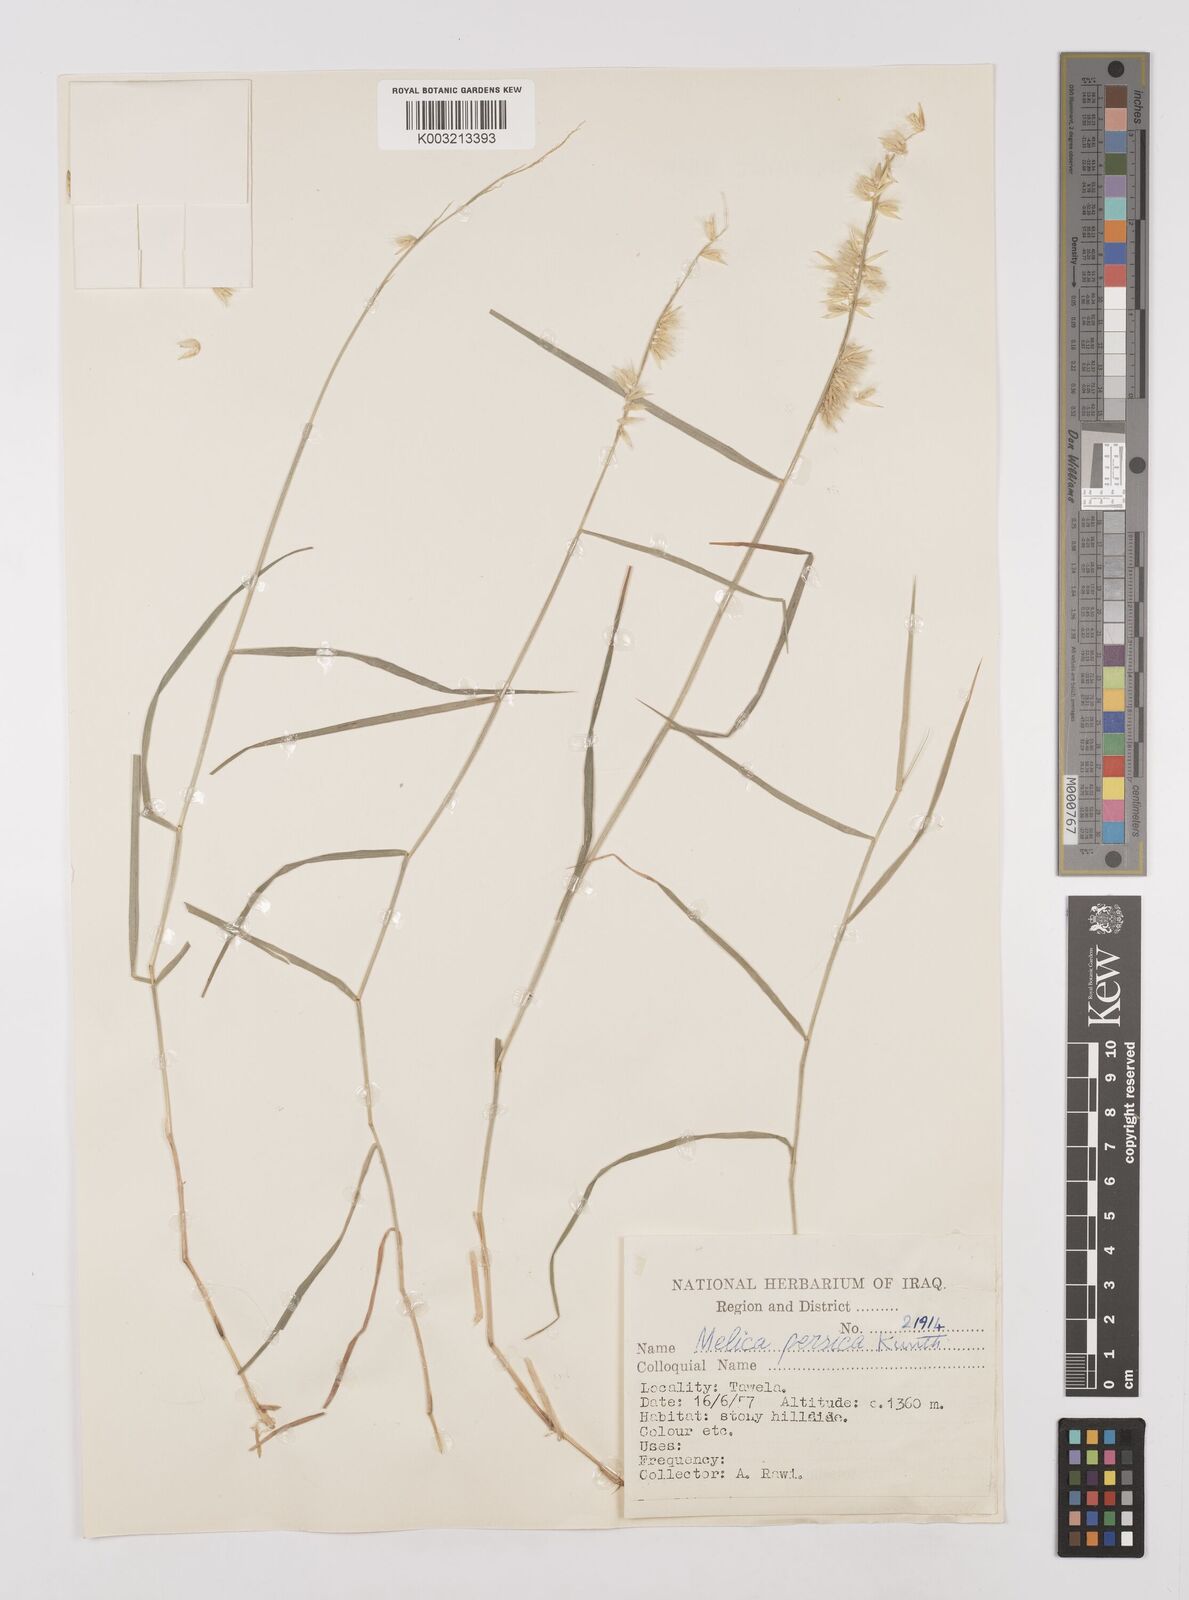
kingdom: Plantae
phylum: Tracheophyta
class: Liliopsida
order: Poales
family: Poaceae
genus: Melica
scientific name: Melica persica
